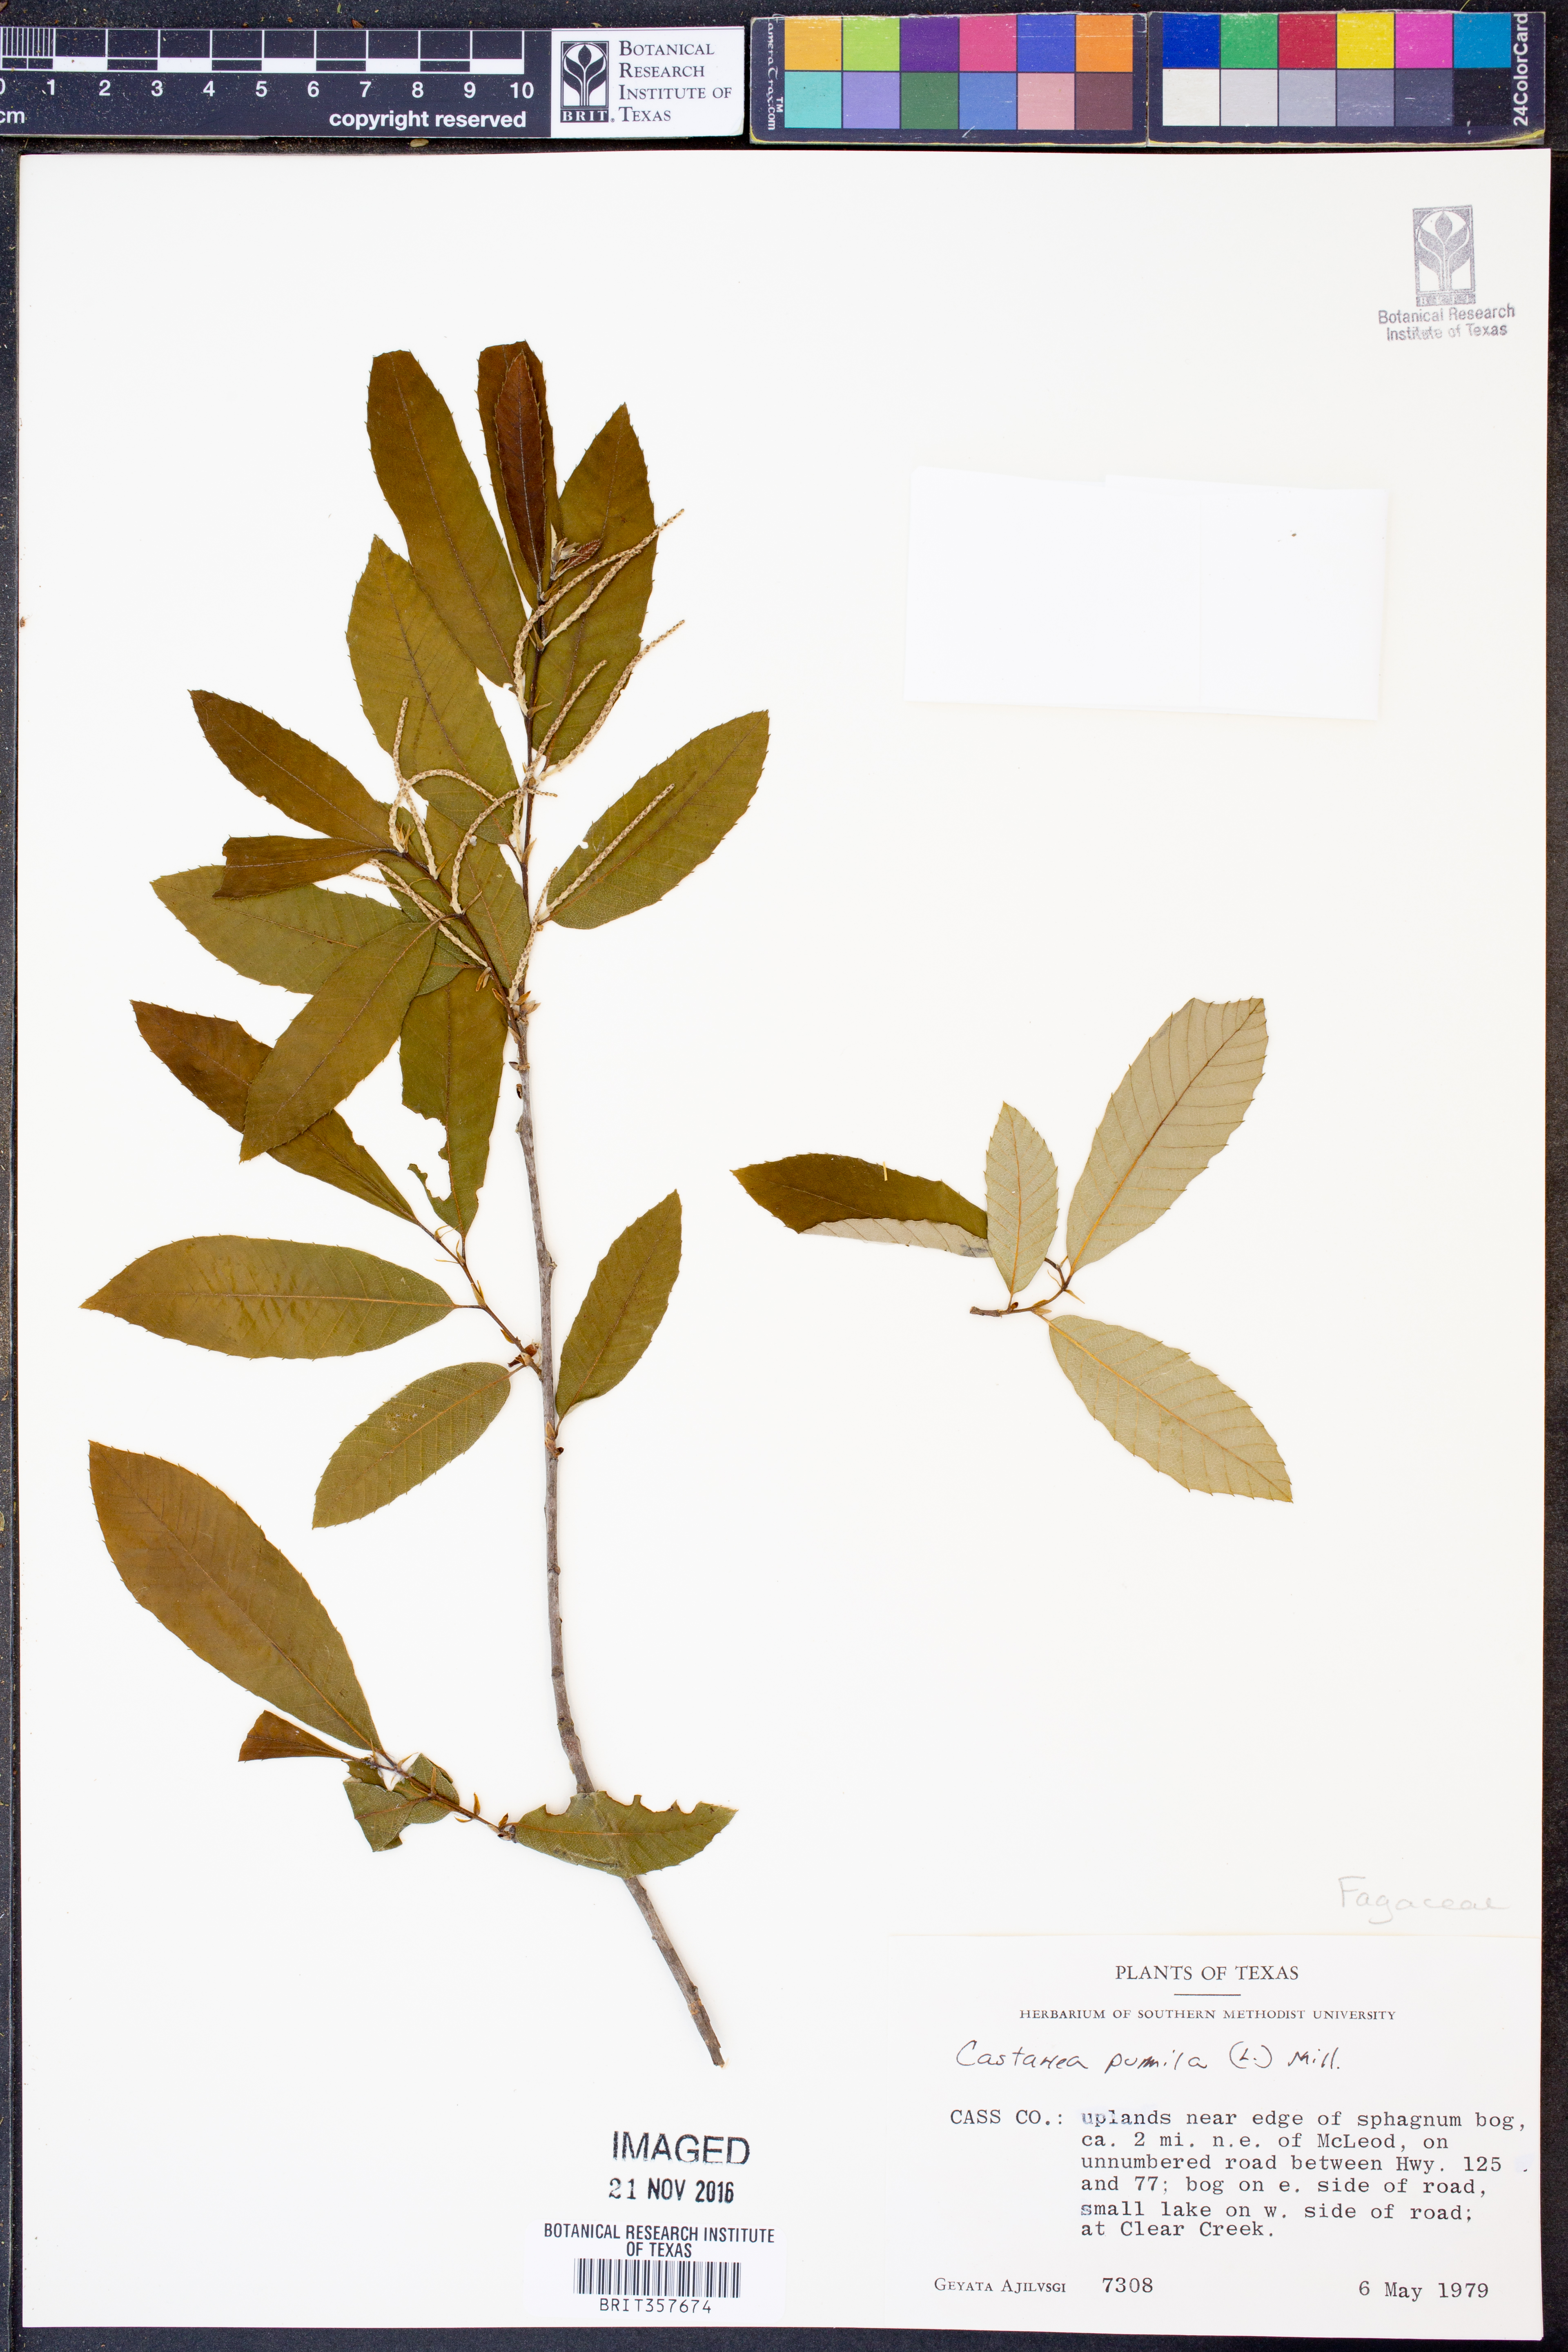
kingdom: Plantae
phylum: Tracheophyta
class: Magnoliopsida
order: Fagales
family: Fagaceae
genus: Castanea
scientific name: Castanea pumila
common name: Chinkapin
